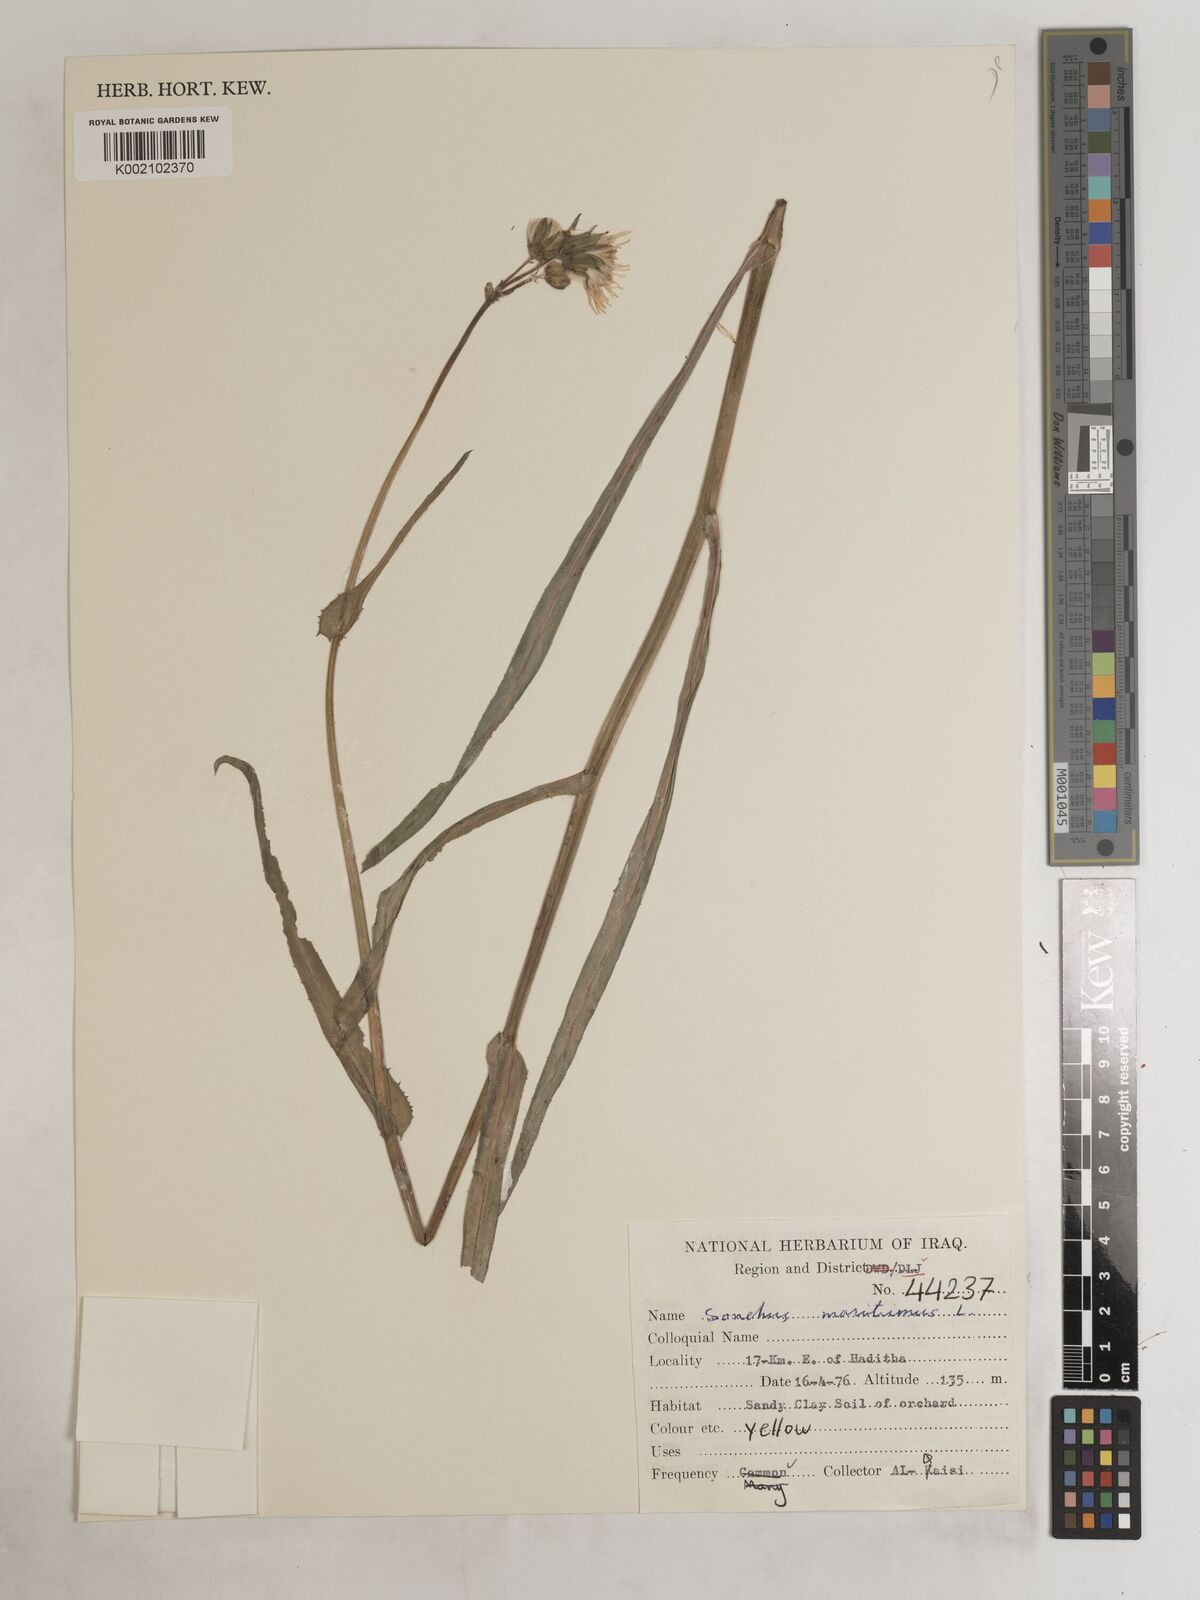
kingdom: Plantae
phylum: Tracheophyta
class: Magnoliopsida
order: Asterales
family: Asteraceae
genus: Sonchus
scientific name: Sonchus maritimus
